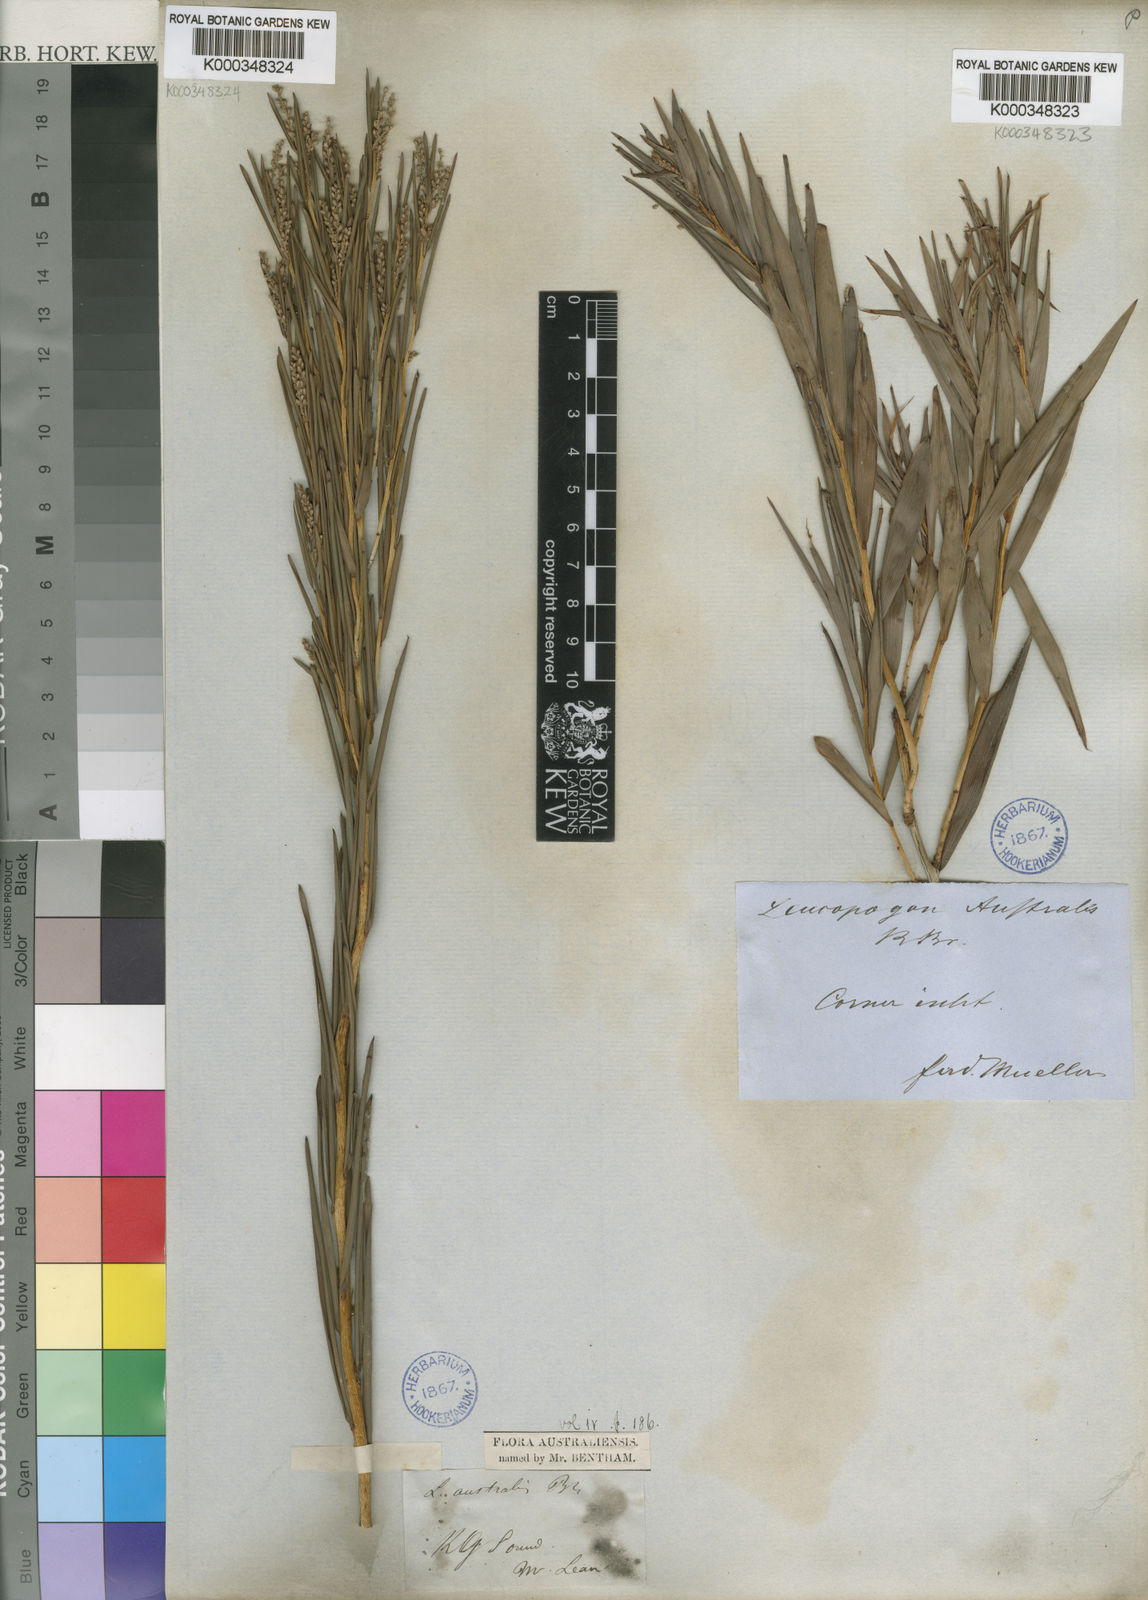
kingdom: Plantae
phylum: Tracheophyta
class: Magnoliopsida
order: Ericales
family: Ericaceae
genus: Leucopogon
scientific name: Leucopogon australis
